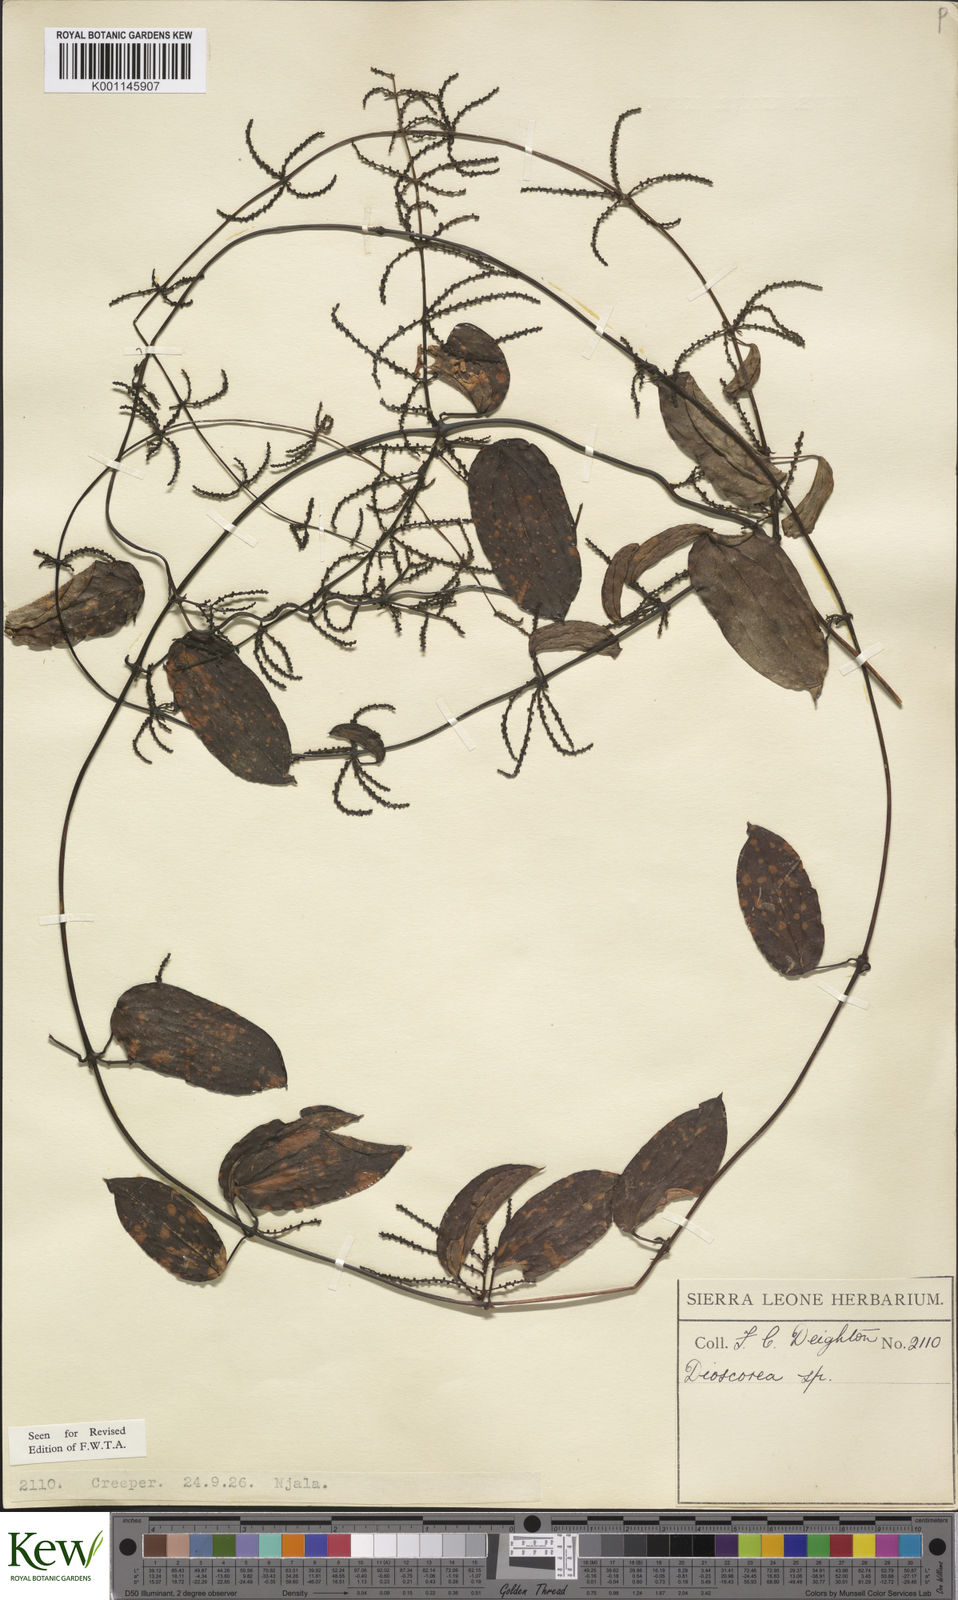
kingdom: Plantae
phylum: Tracheophyta
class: Liliopsida
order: Dioscoreales
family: Dioscoreaceae
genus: Dioscorea
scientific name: Dioscorea togoensis
